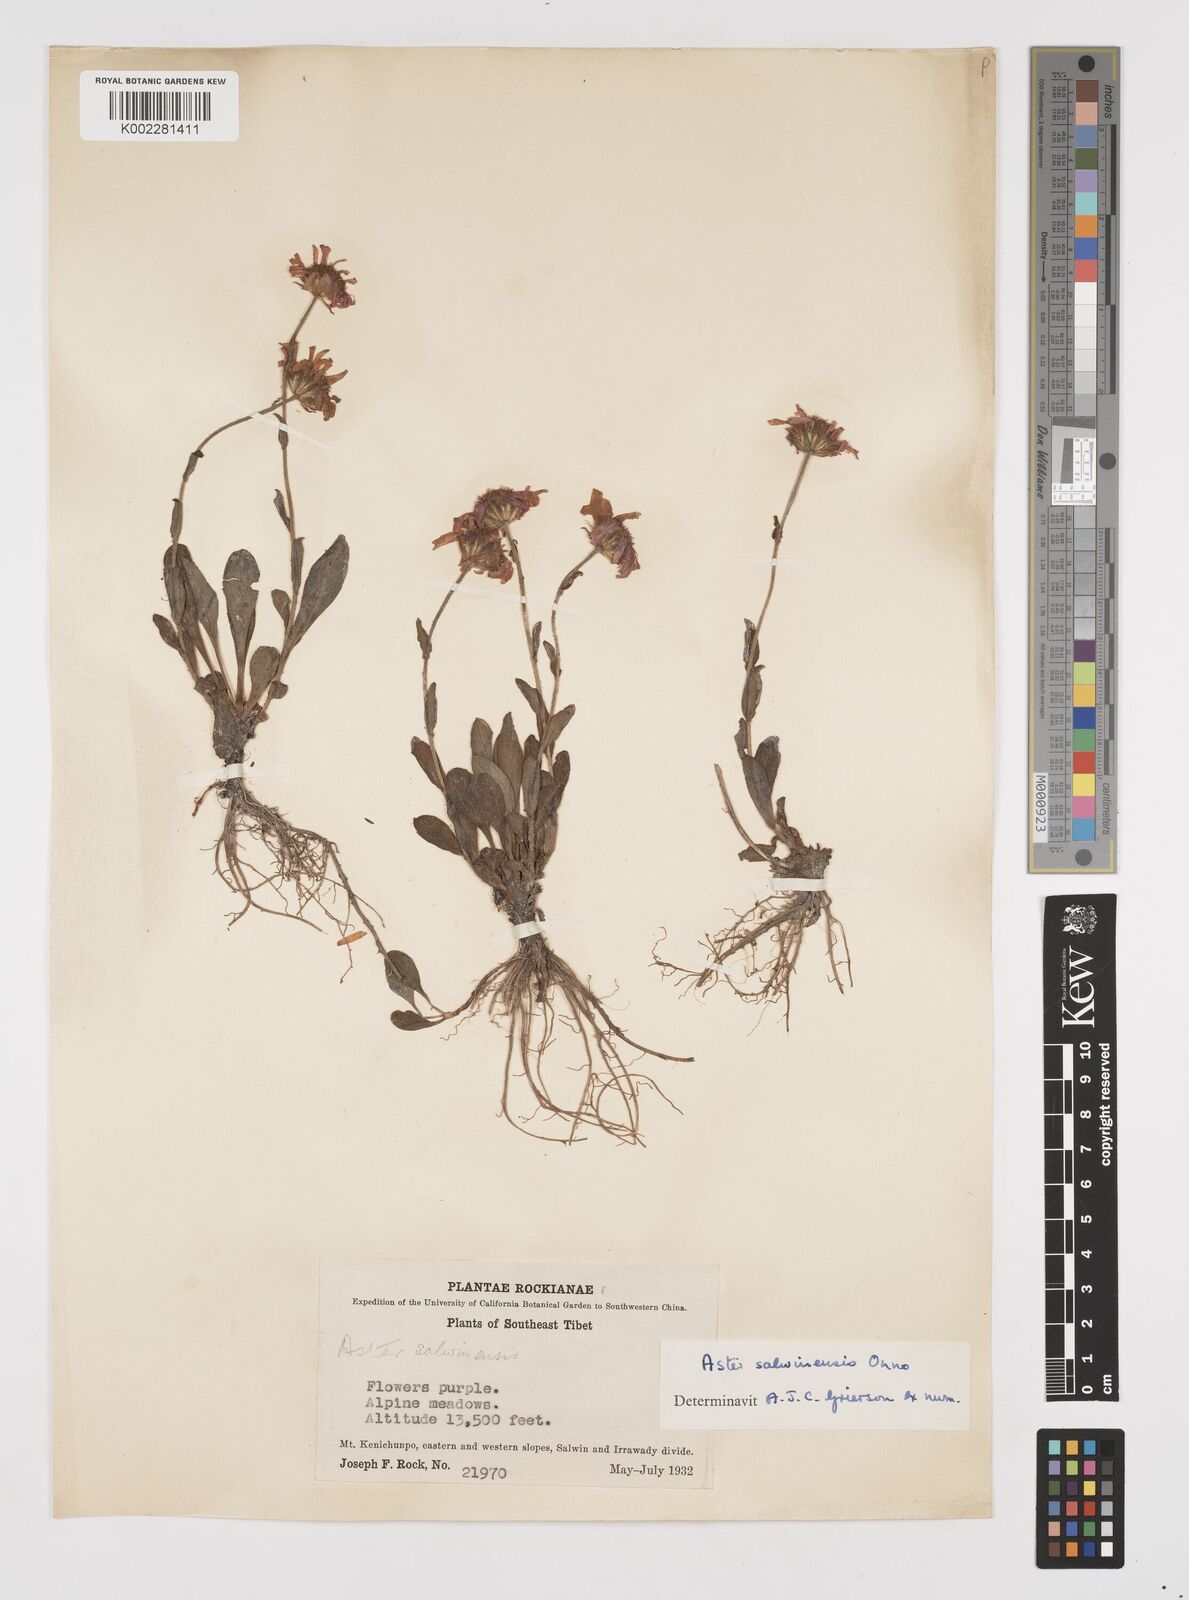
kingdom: Plantae
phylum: Tracheophyta
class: Magnoliopsida
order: Asterales
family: Asteraceae
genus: Tibetiodes
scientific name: Tibetiodes salwinensis
